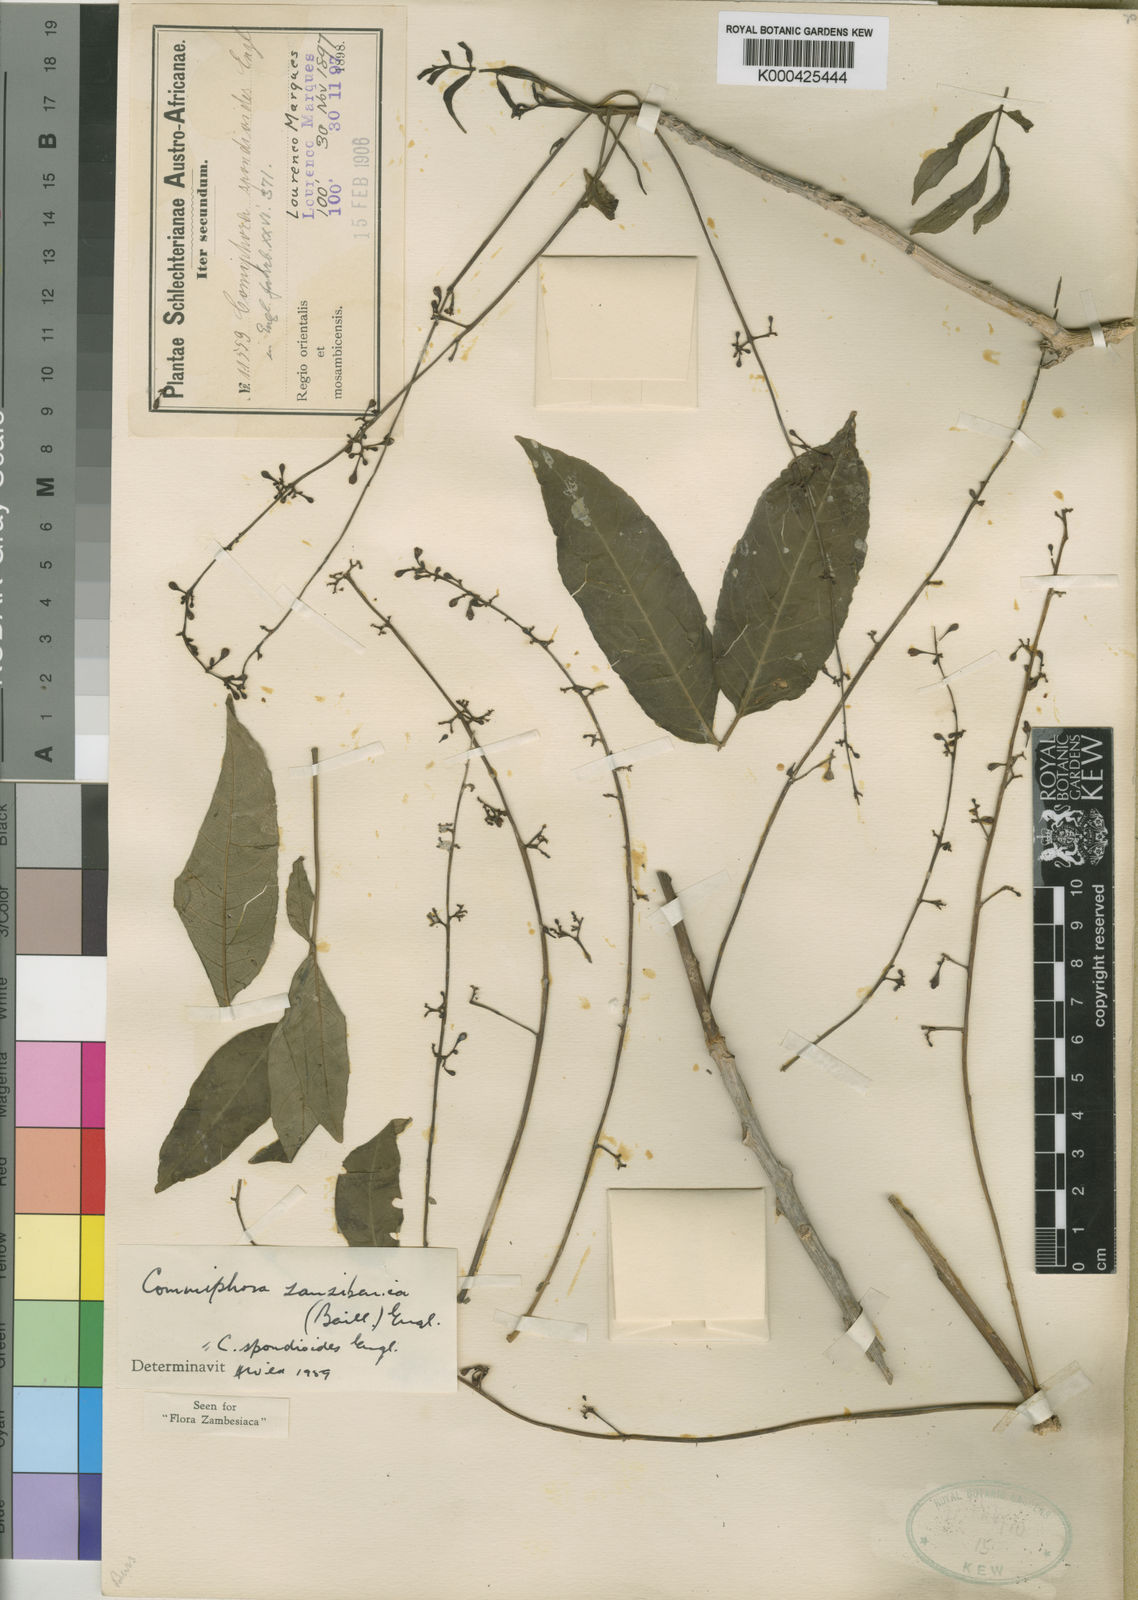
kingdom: Plantae
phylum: Tracheophyta
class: Magnoliopsida
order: Sapindales
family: Burseraceae
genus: Commiphora
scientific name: Commiphora zanzibarica
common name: Lebombo corkwood
